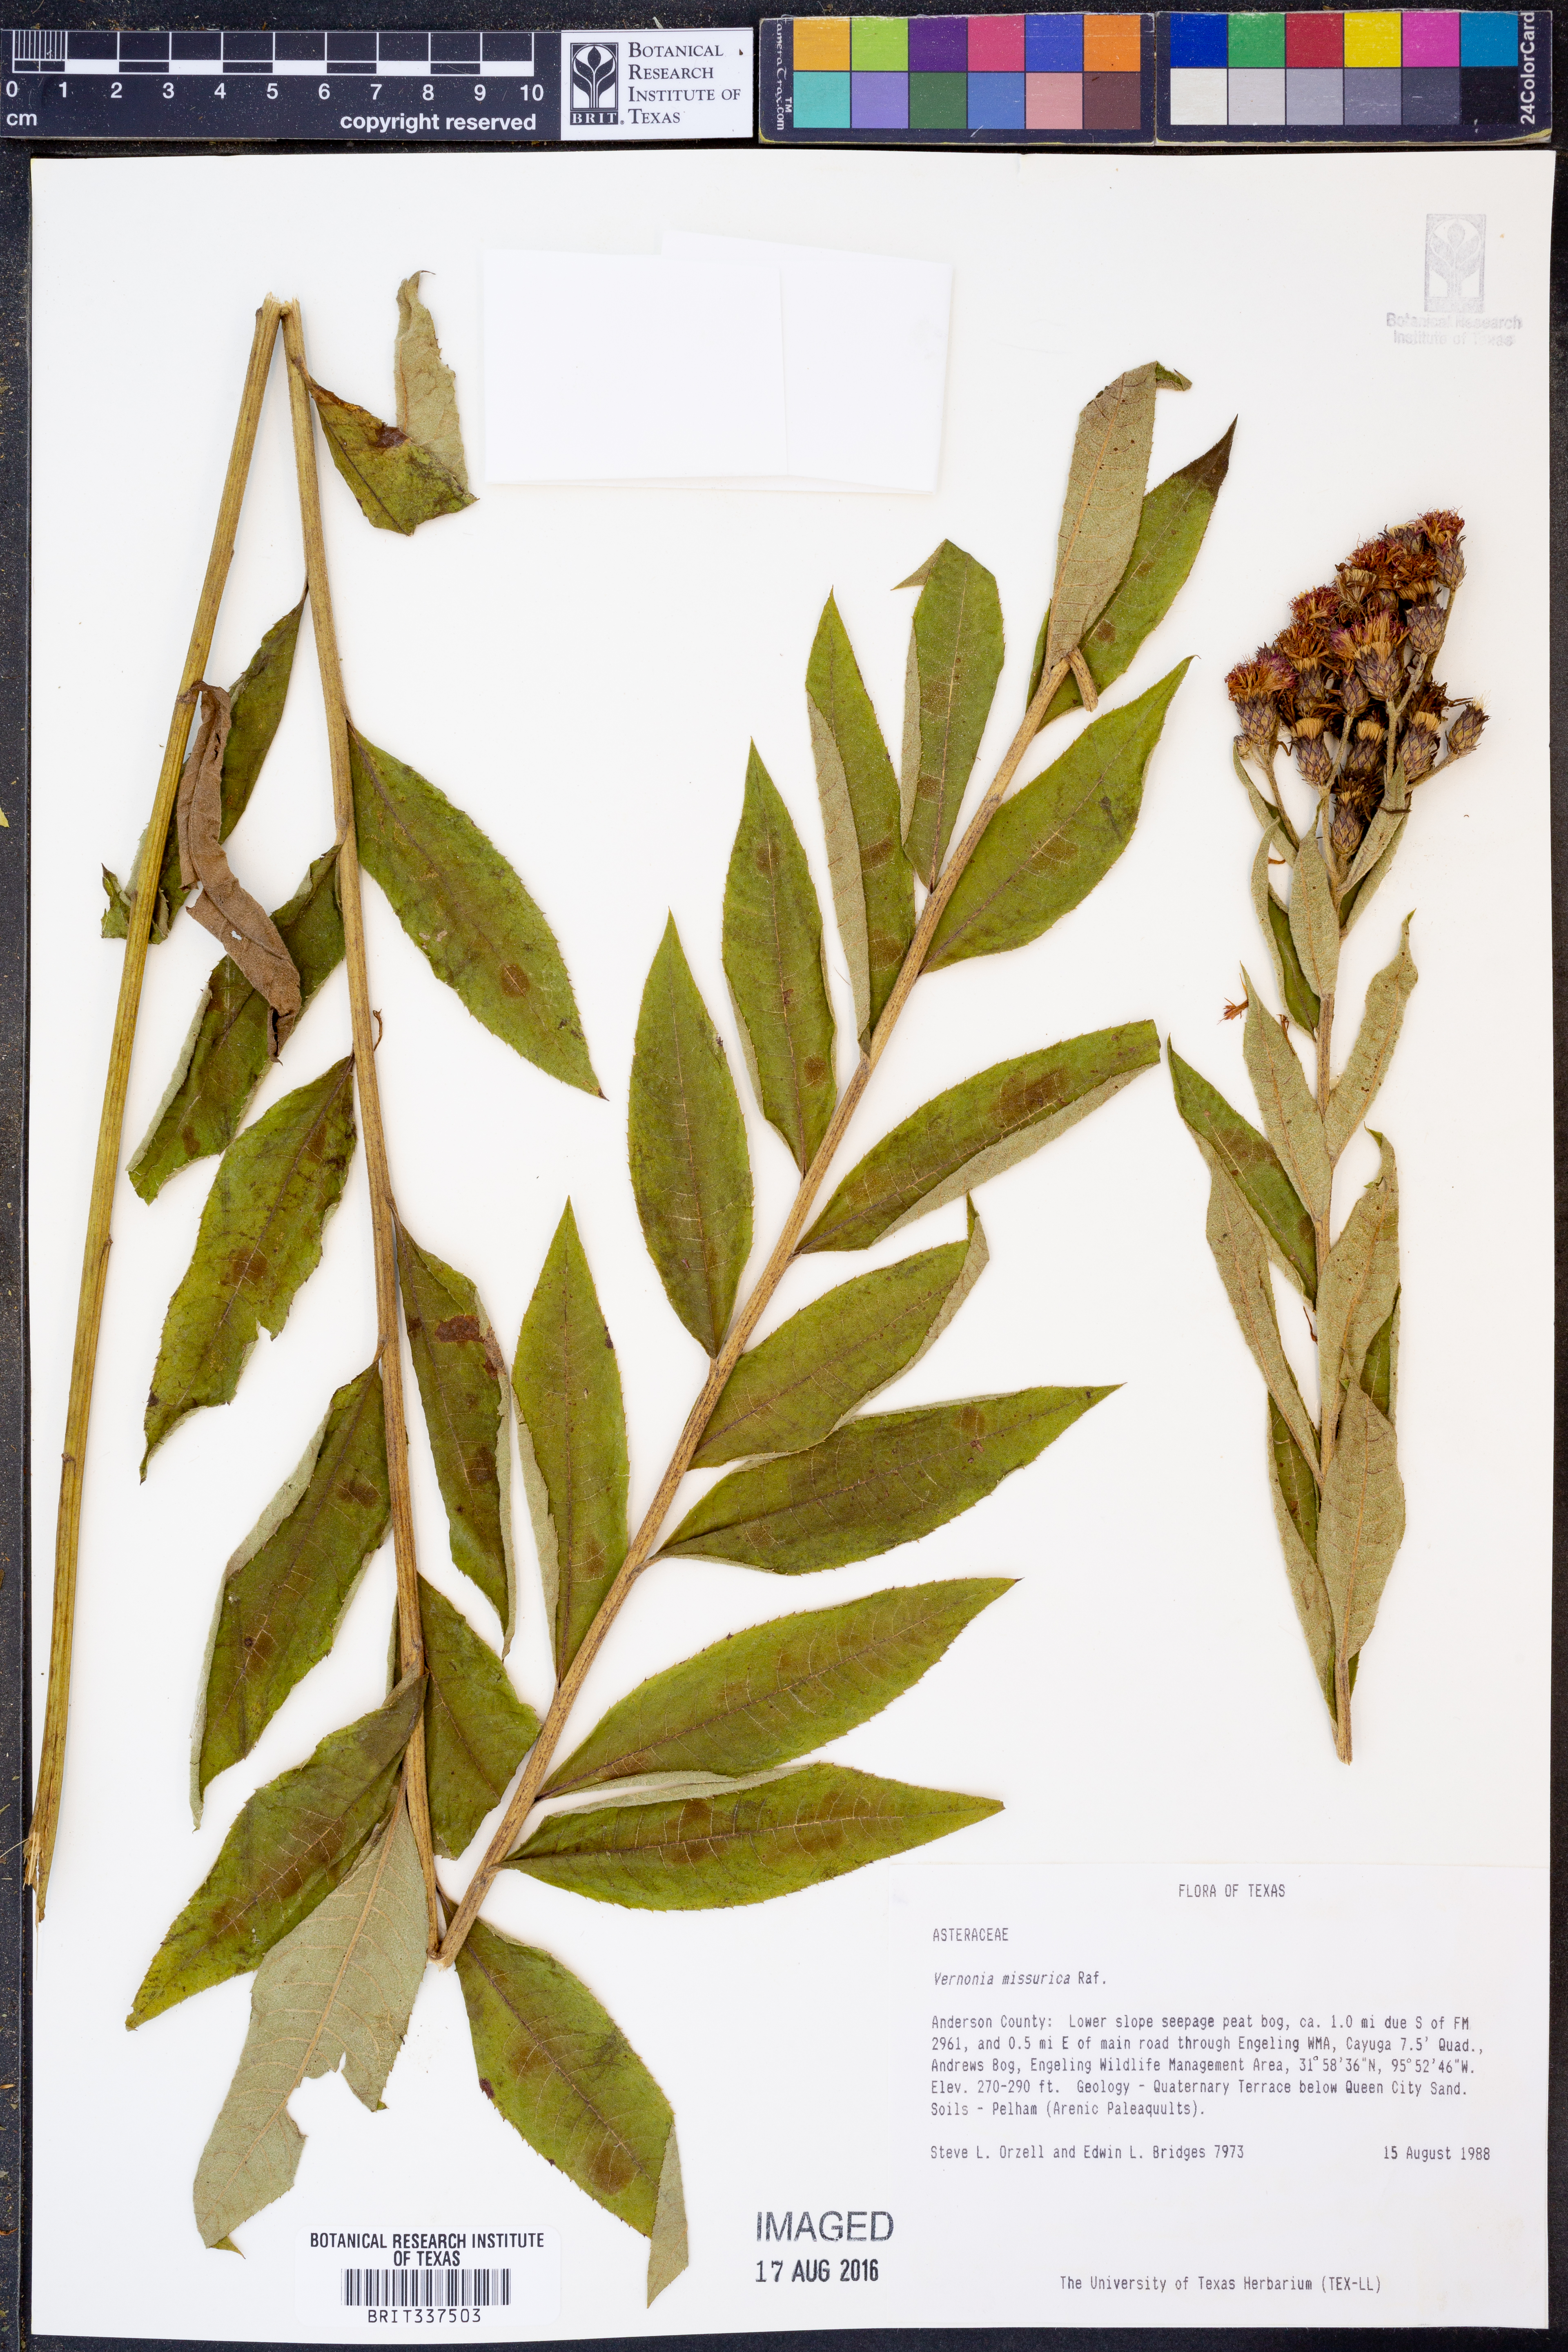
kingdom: Plantae
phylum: Tracheophyta
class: Magnoliopsida
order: Asterales
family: Asteraceae
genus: Vernonia
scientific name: Vernonia missurica
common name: Missouri ironweed
